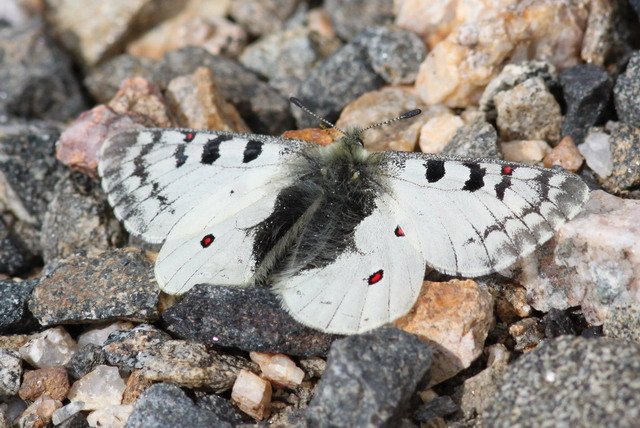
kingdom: Animalia
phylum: Arthropoda
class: Insecta
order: Lepidoptera
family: Papilionidae
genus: Parnassius
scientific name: Parnassius phoebus
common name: Phoebus Parnassian
